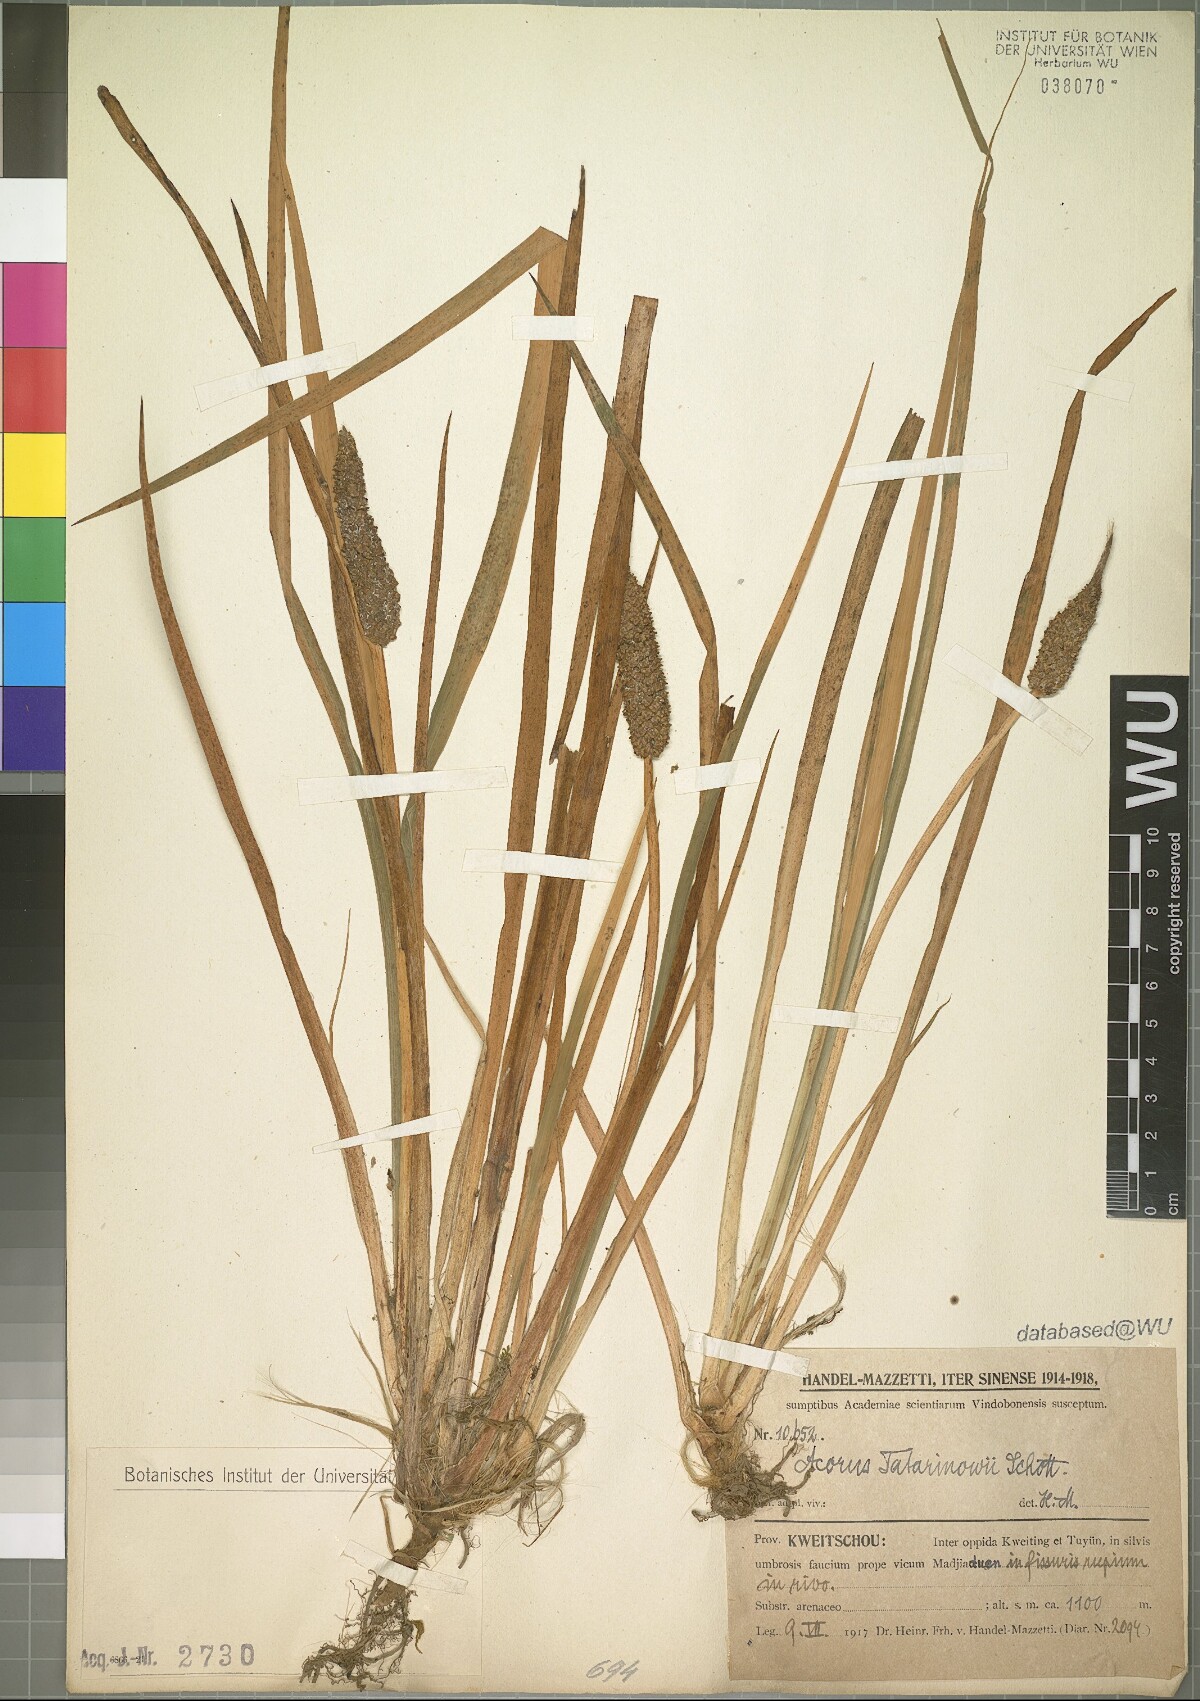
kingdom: Plantae
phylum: Tracheophyta
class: Liliopsida
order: Acorales
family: Acoraceae
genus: Acorus
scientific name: Acorus calamus
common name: Sweet-flag
